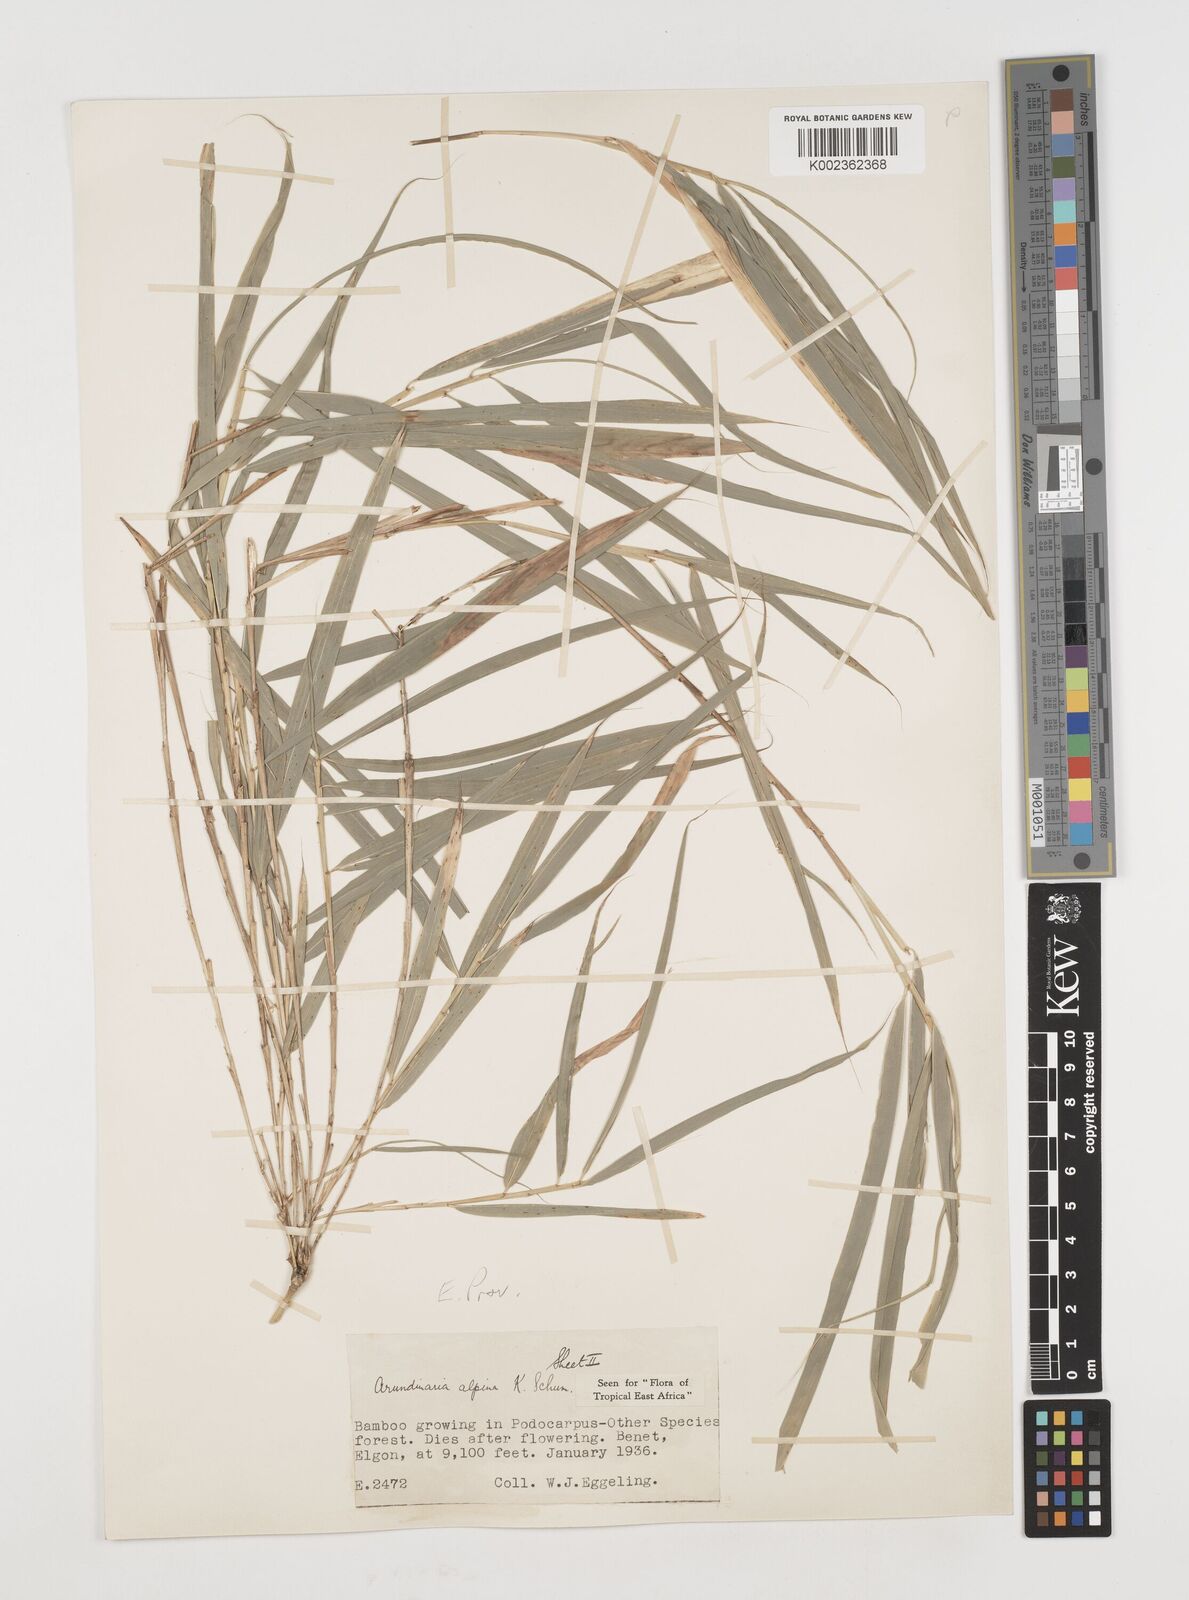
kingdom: Plantae
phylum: Tracheophyta
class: Liliopsida
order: Poales
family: Poaceae
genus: Oldeania
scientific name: Oldeania alpina
